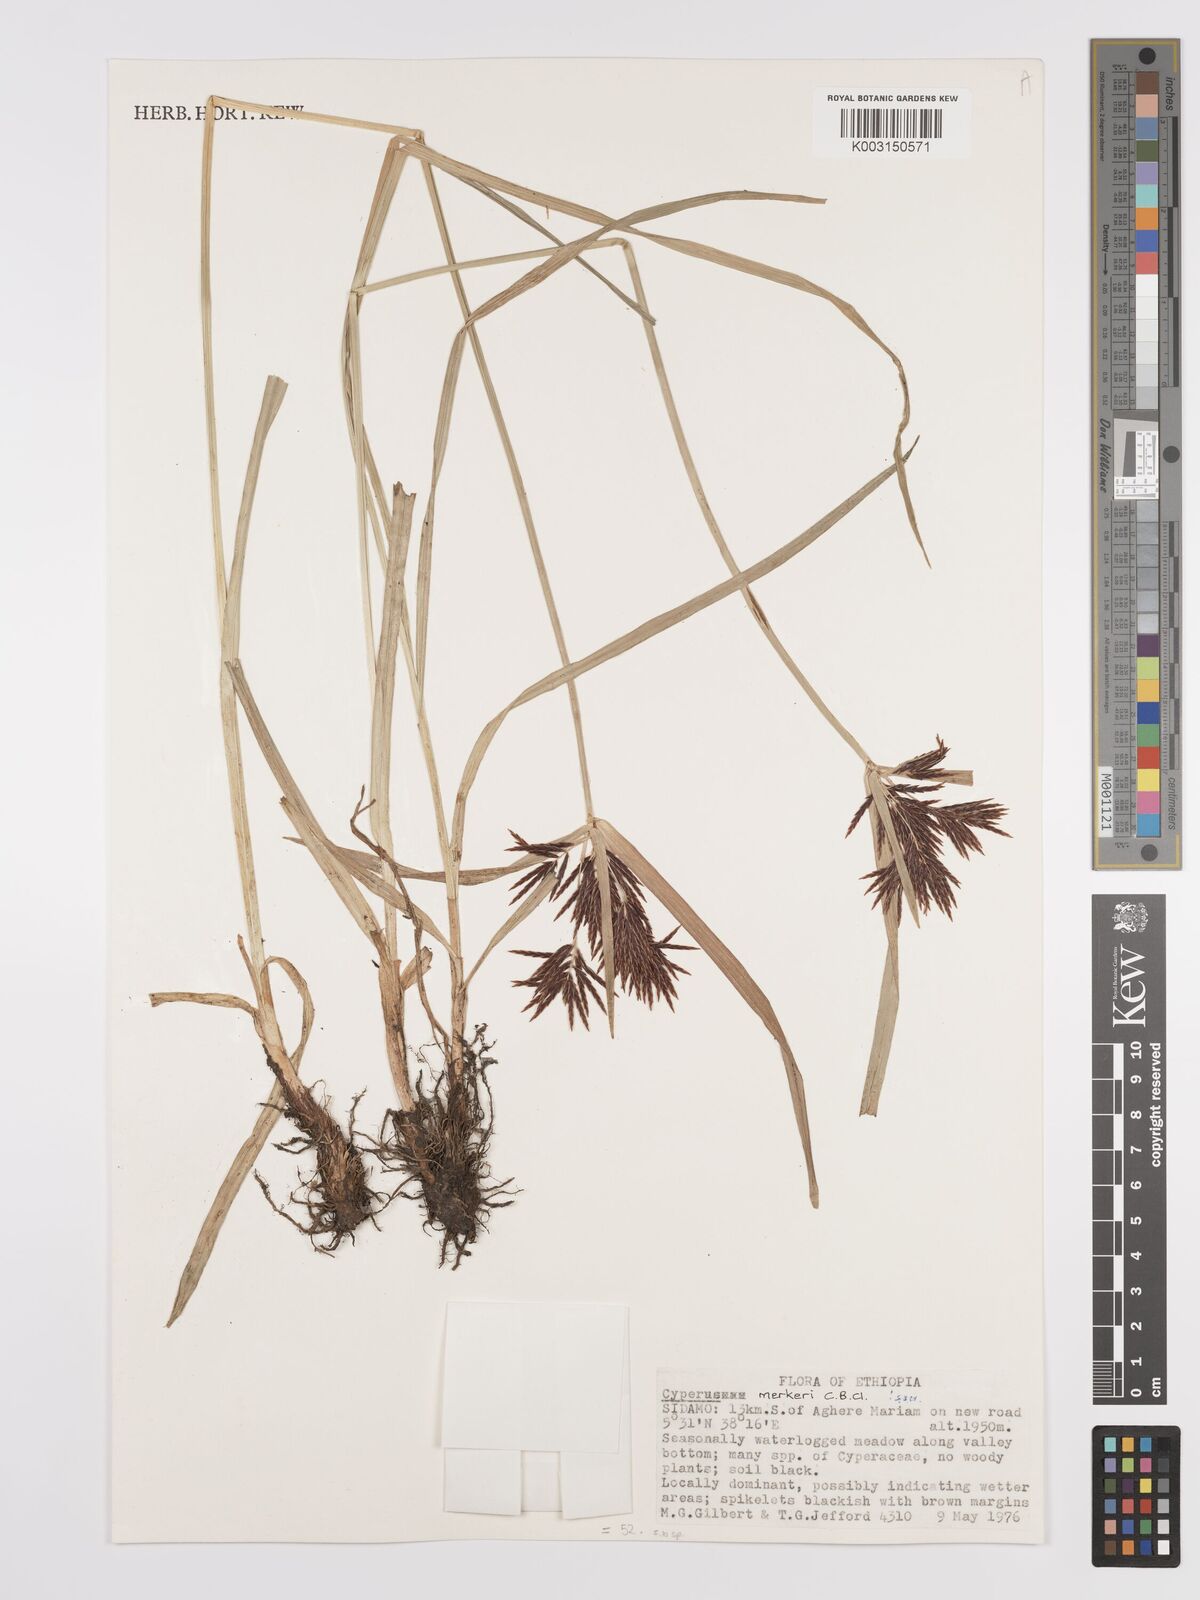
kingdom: Plantae
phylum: Tracheophyta
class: Liliopsida
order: Poales
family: Cyperaceae
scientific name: Cyperaceae
